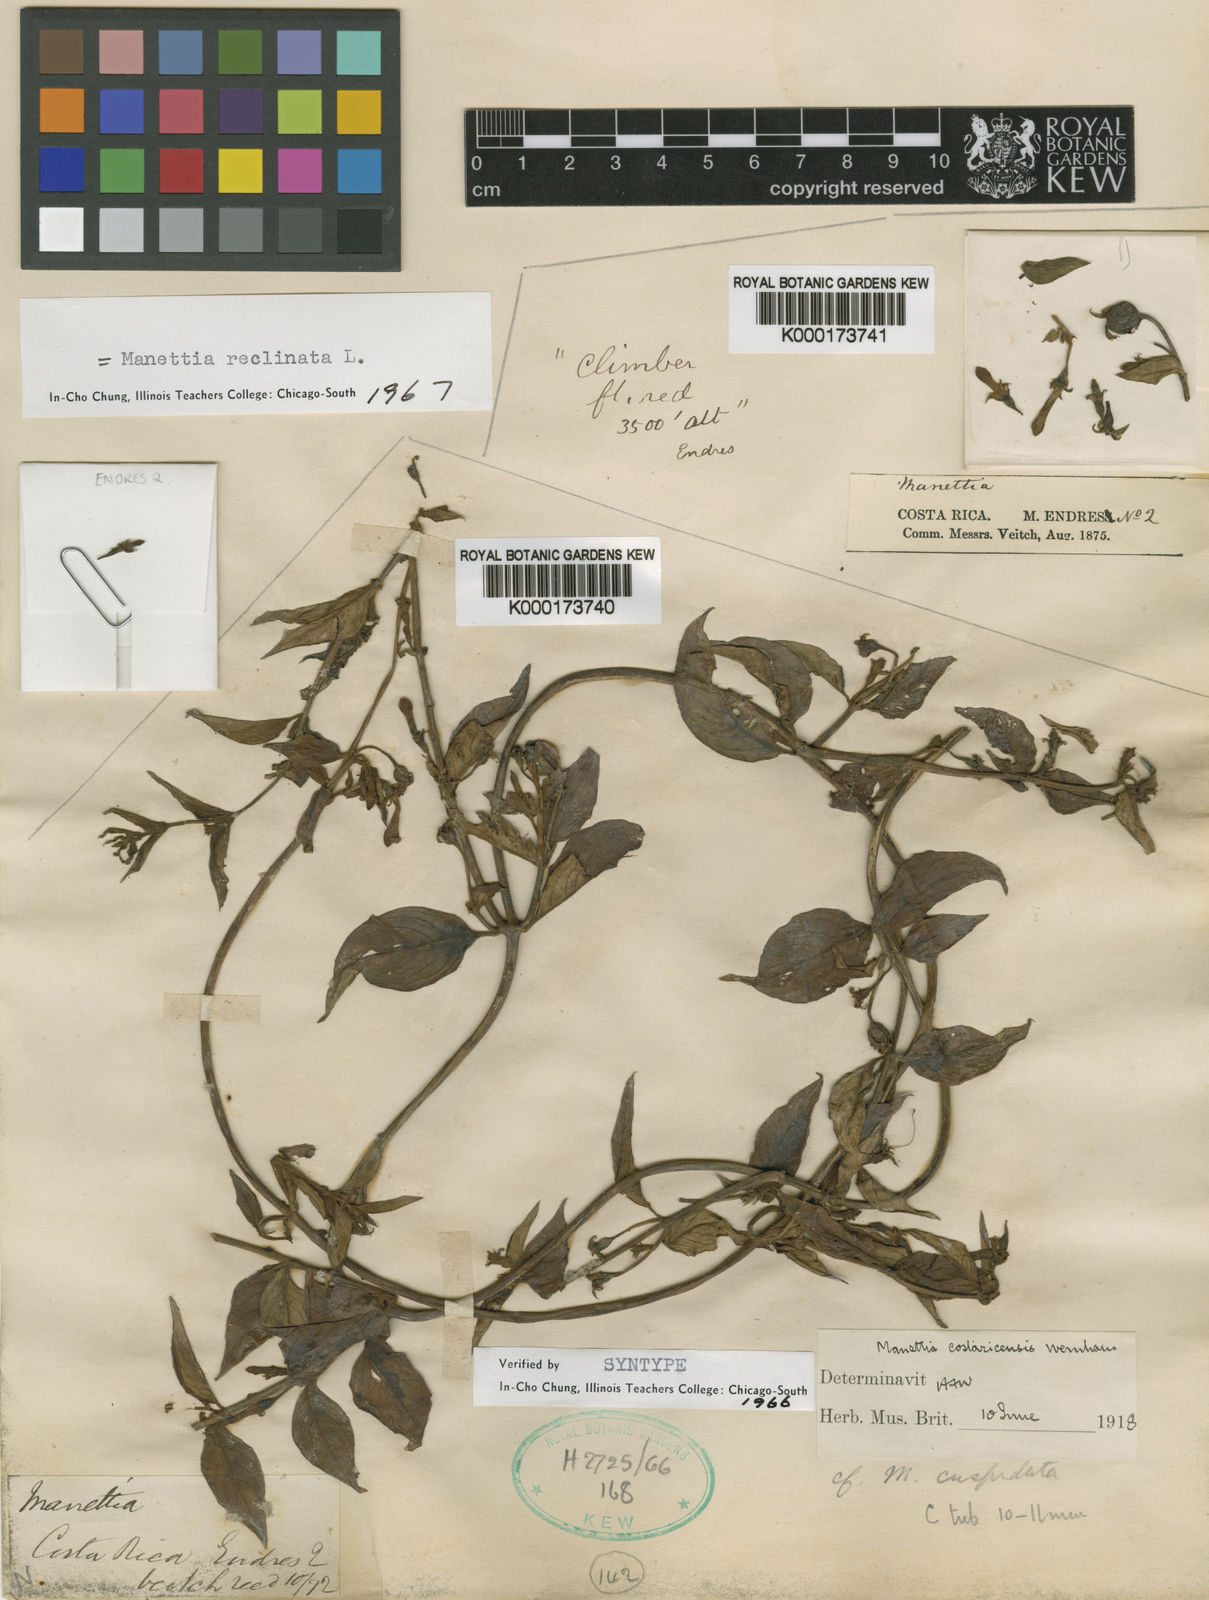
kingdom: Plantae
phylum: Tracheophyta
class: Magnoliopsida
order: Gentianales
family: Rubiaceae
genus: Manettia
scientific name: Manettia reclinata
